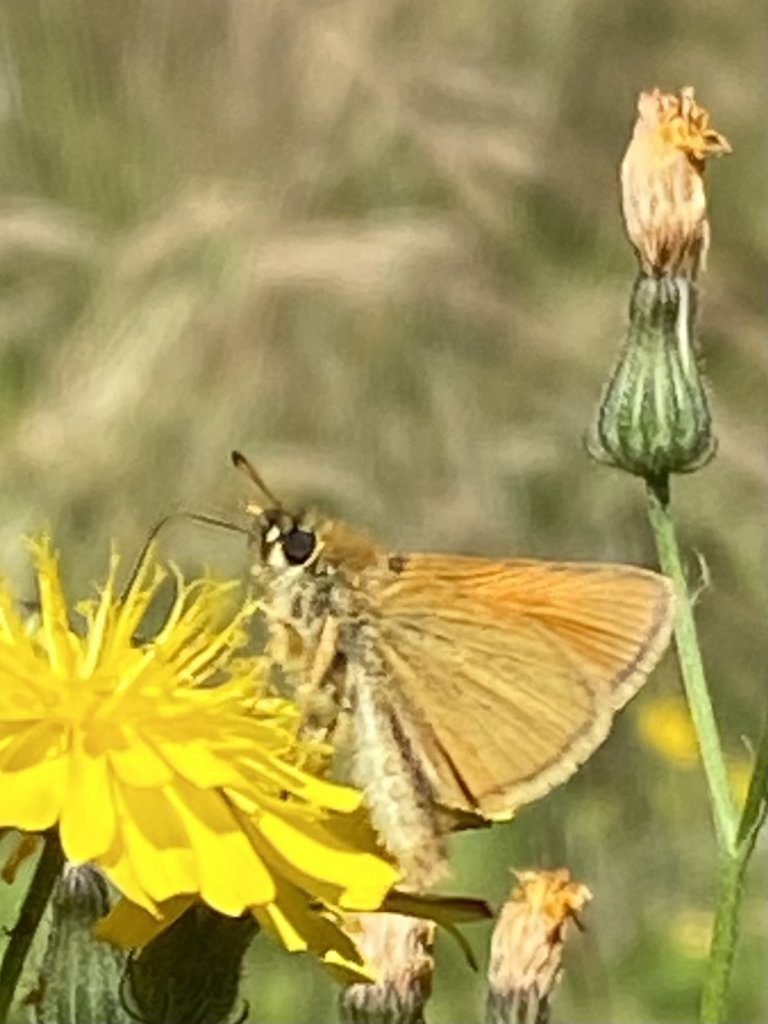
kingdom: Animalia
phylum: Arthropoda
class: Insecta
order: Lepidoptera
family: Hesperiidae
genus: Thymelicus
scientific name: Thymelicus lineola
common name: European Skipper
